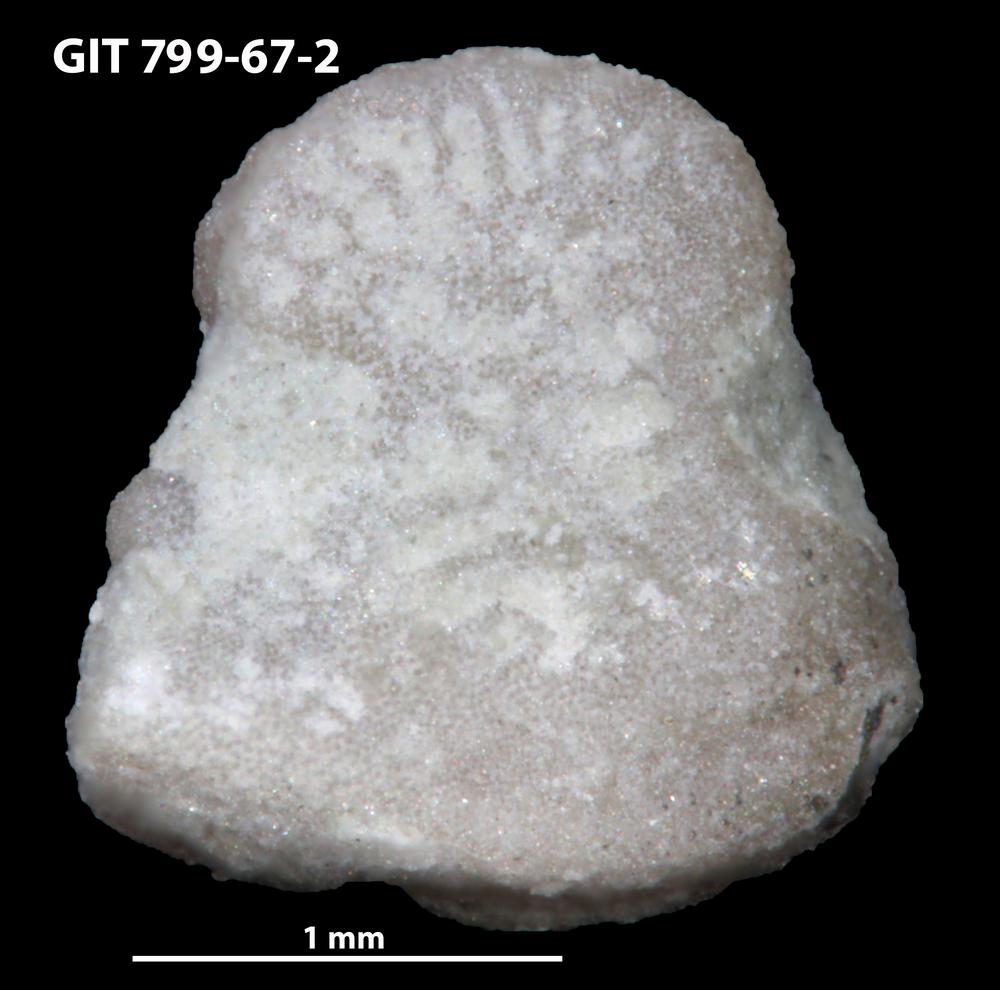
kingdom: Animalia
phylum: Echinodermata
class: Crinoidea
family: Cyclocystoididae
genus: Polytryphocycloides
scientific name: Polytryphocycloides
